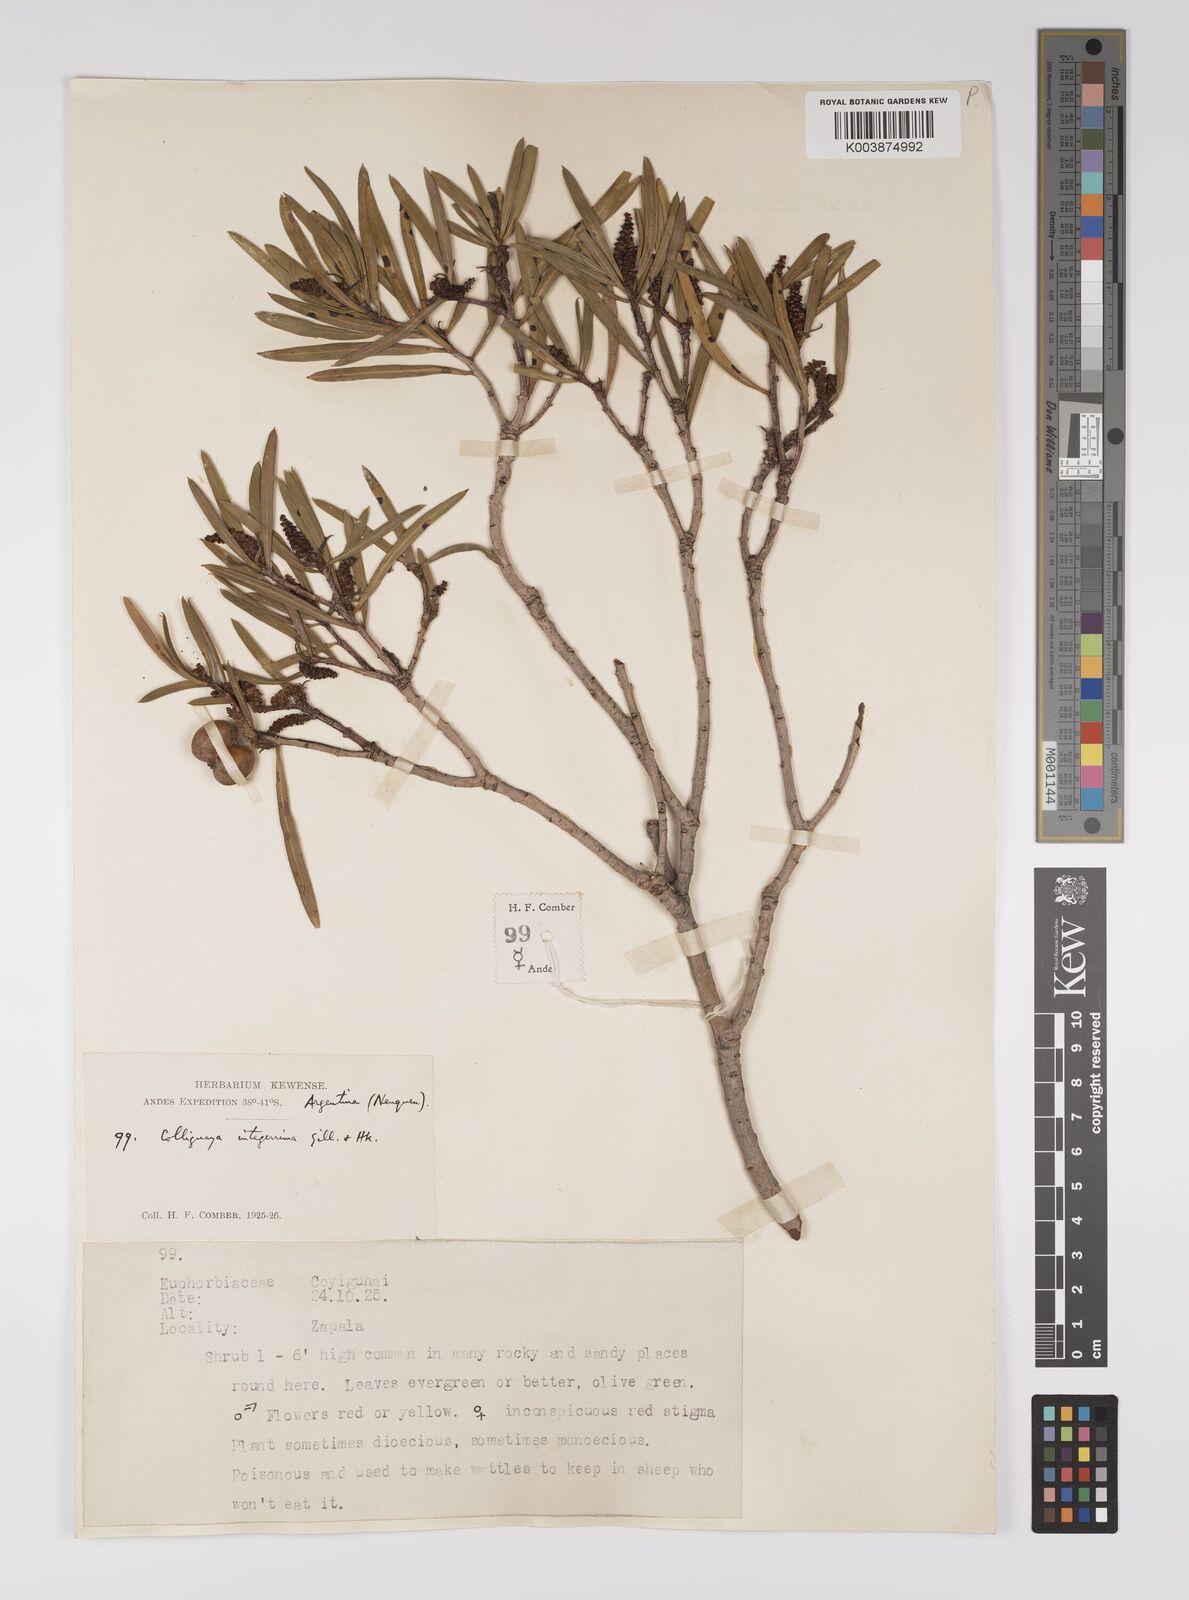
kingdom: Plantae
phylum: Tracheophyta
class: Magnoliopsida
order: Malpighiales
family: Euphorbiaceae
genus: Colliguaja
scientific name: Colliguaja integerrima
